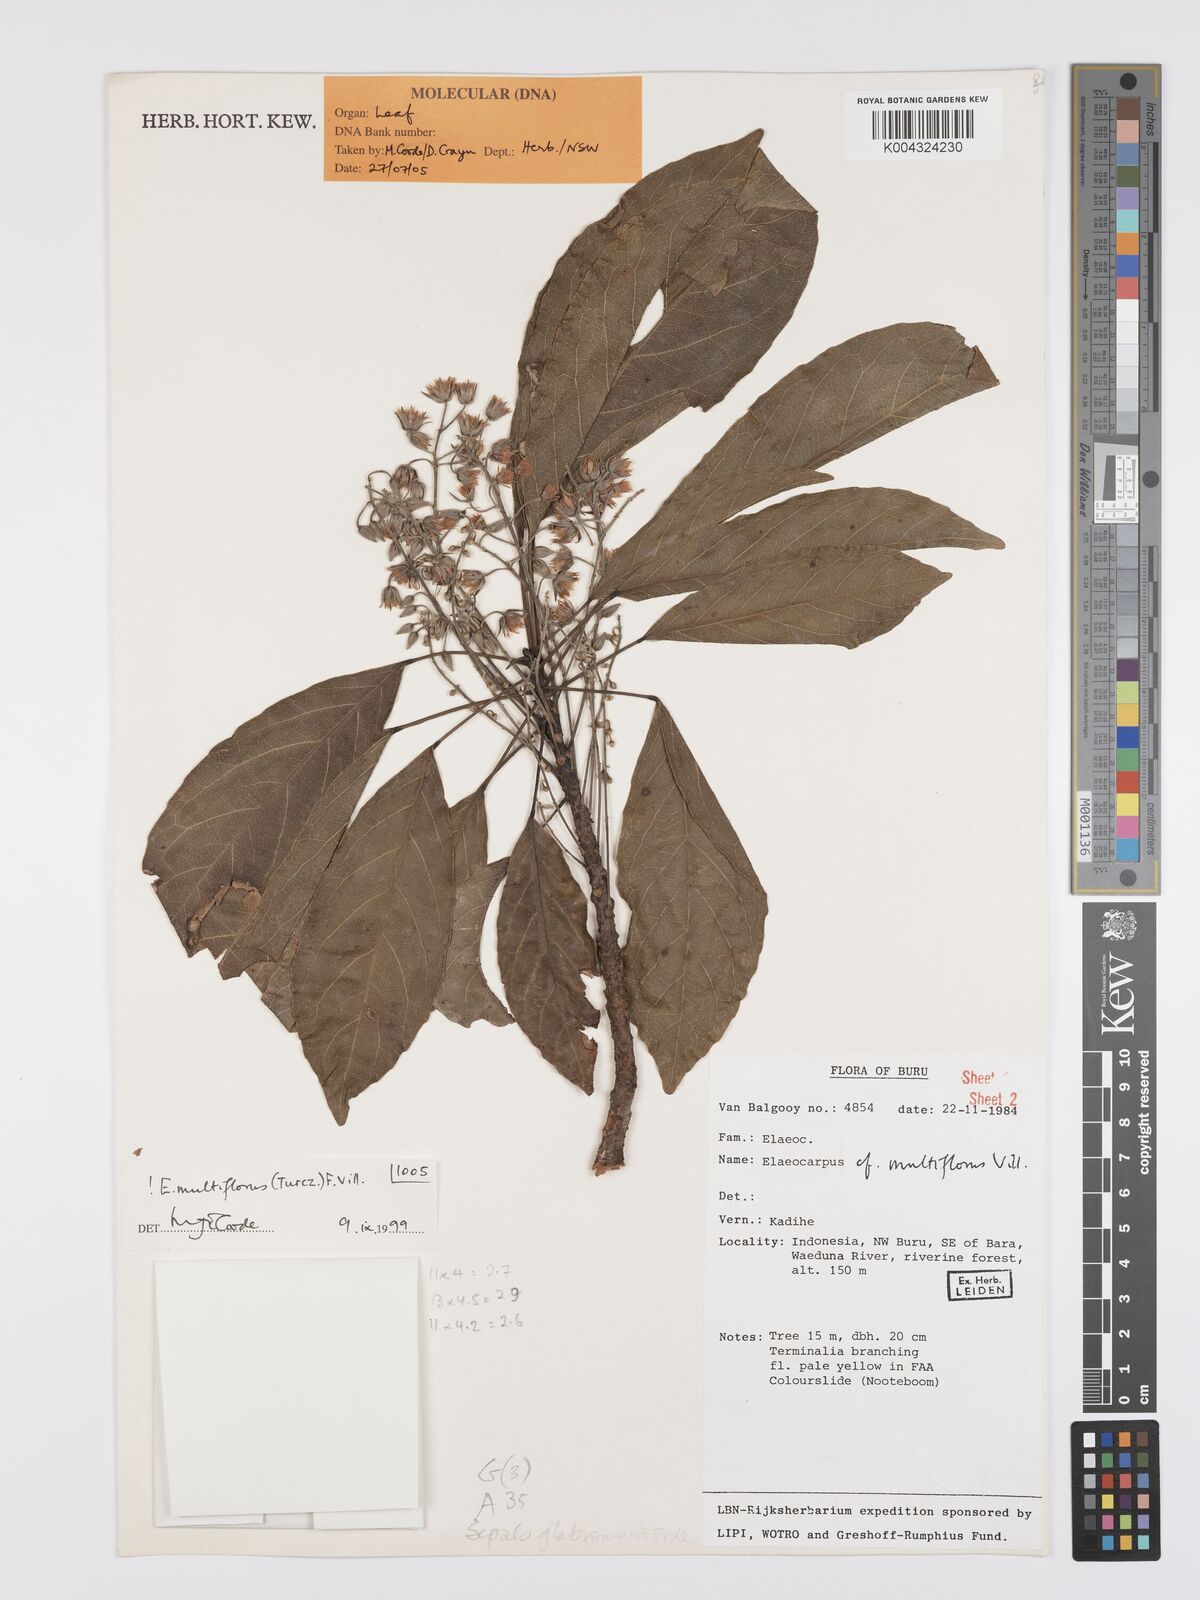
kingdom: Plantae
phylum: Tracheophyta
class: Magnoliopsida
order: Oxalidales
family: Elaeocarpaceae
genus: Elaeocarpus
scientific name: Elaeocarpus multiflorus
